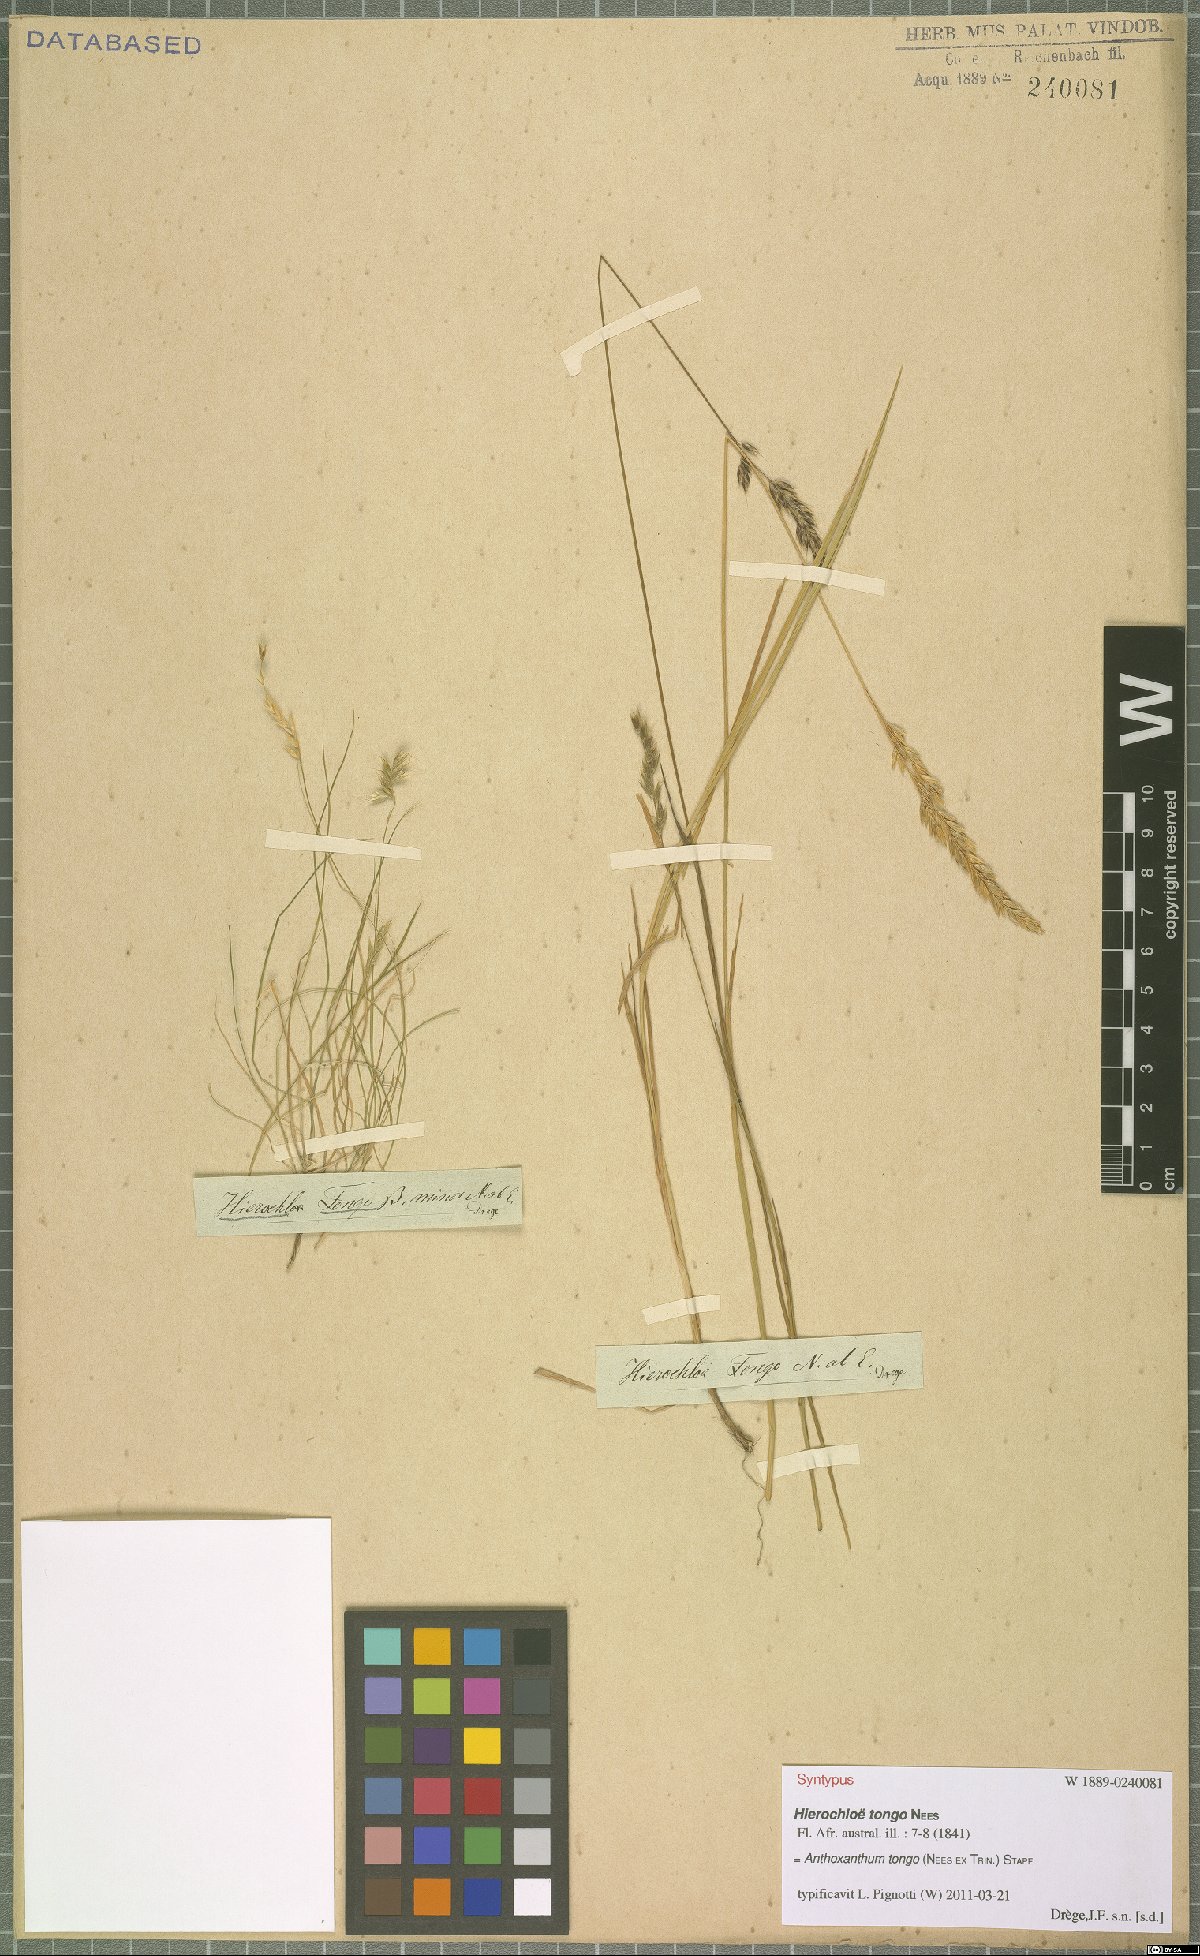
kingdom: Plantae
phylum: Tracheophyta
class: Liliopsida
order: Poales
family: Poaceae
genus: Anthoxanthum
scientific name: Anthoxanthum tongo
